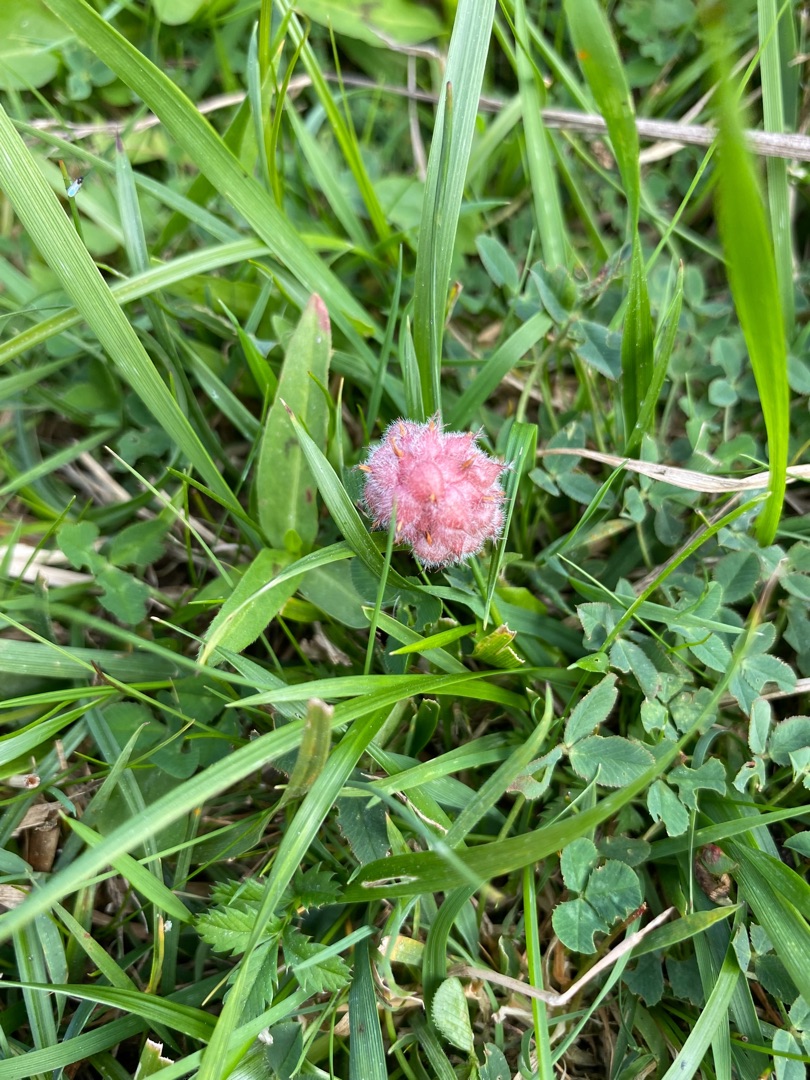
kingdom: Plantae
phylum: Tracheophyta
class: Magnoliopsida
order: Fabales
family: Fabaceae
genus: Trifolium
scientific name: Trifolium fragiferum
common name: Jordbær-kløver
